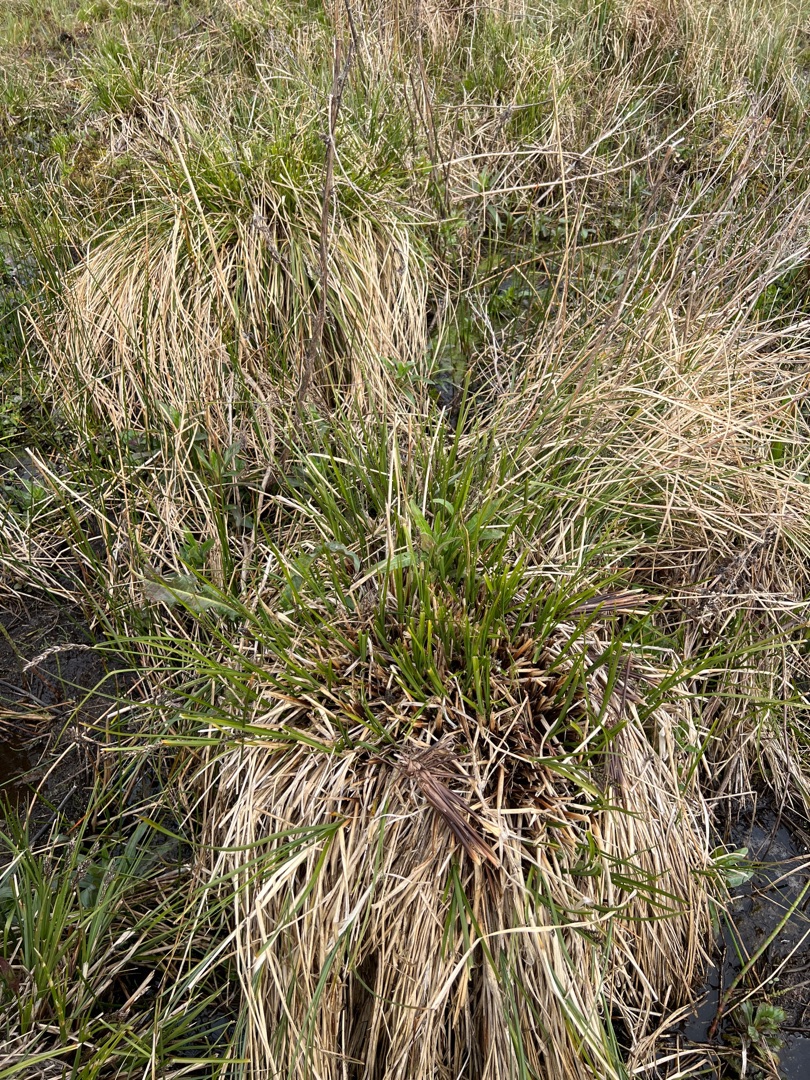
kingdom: Plantae
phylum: Tracheophyta
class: Liliopsida
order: Poales
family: Cyperaceae
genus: Carex
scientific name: Carex paniculata
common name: Top-star
